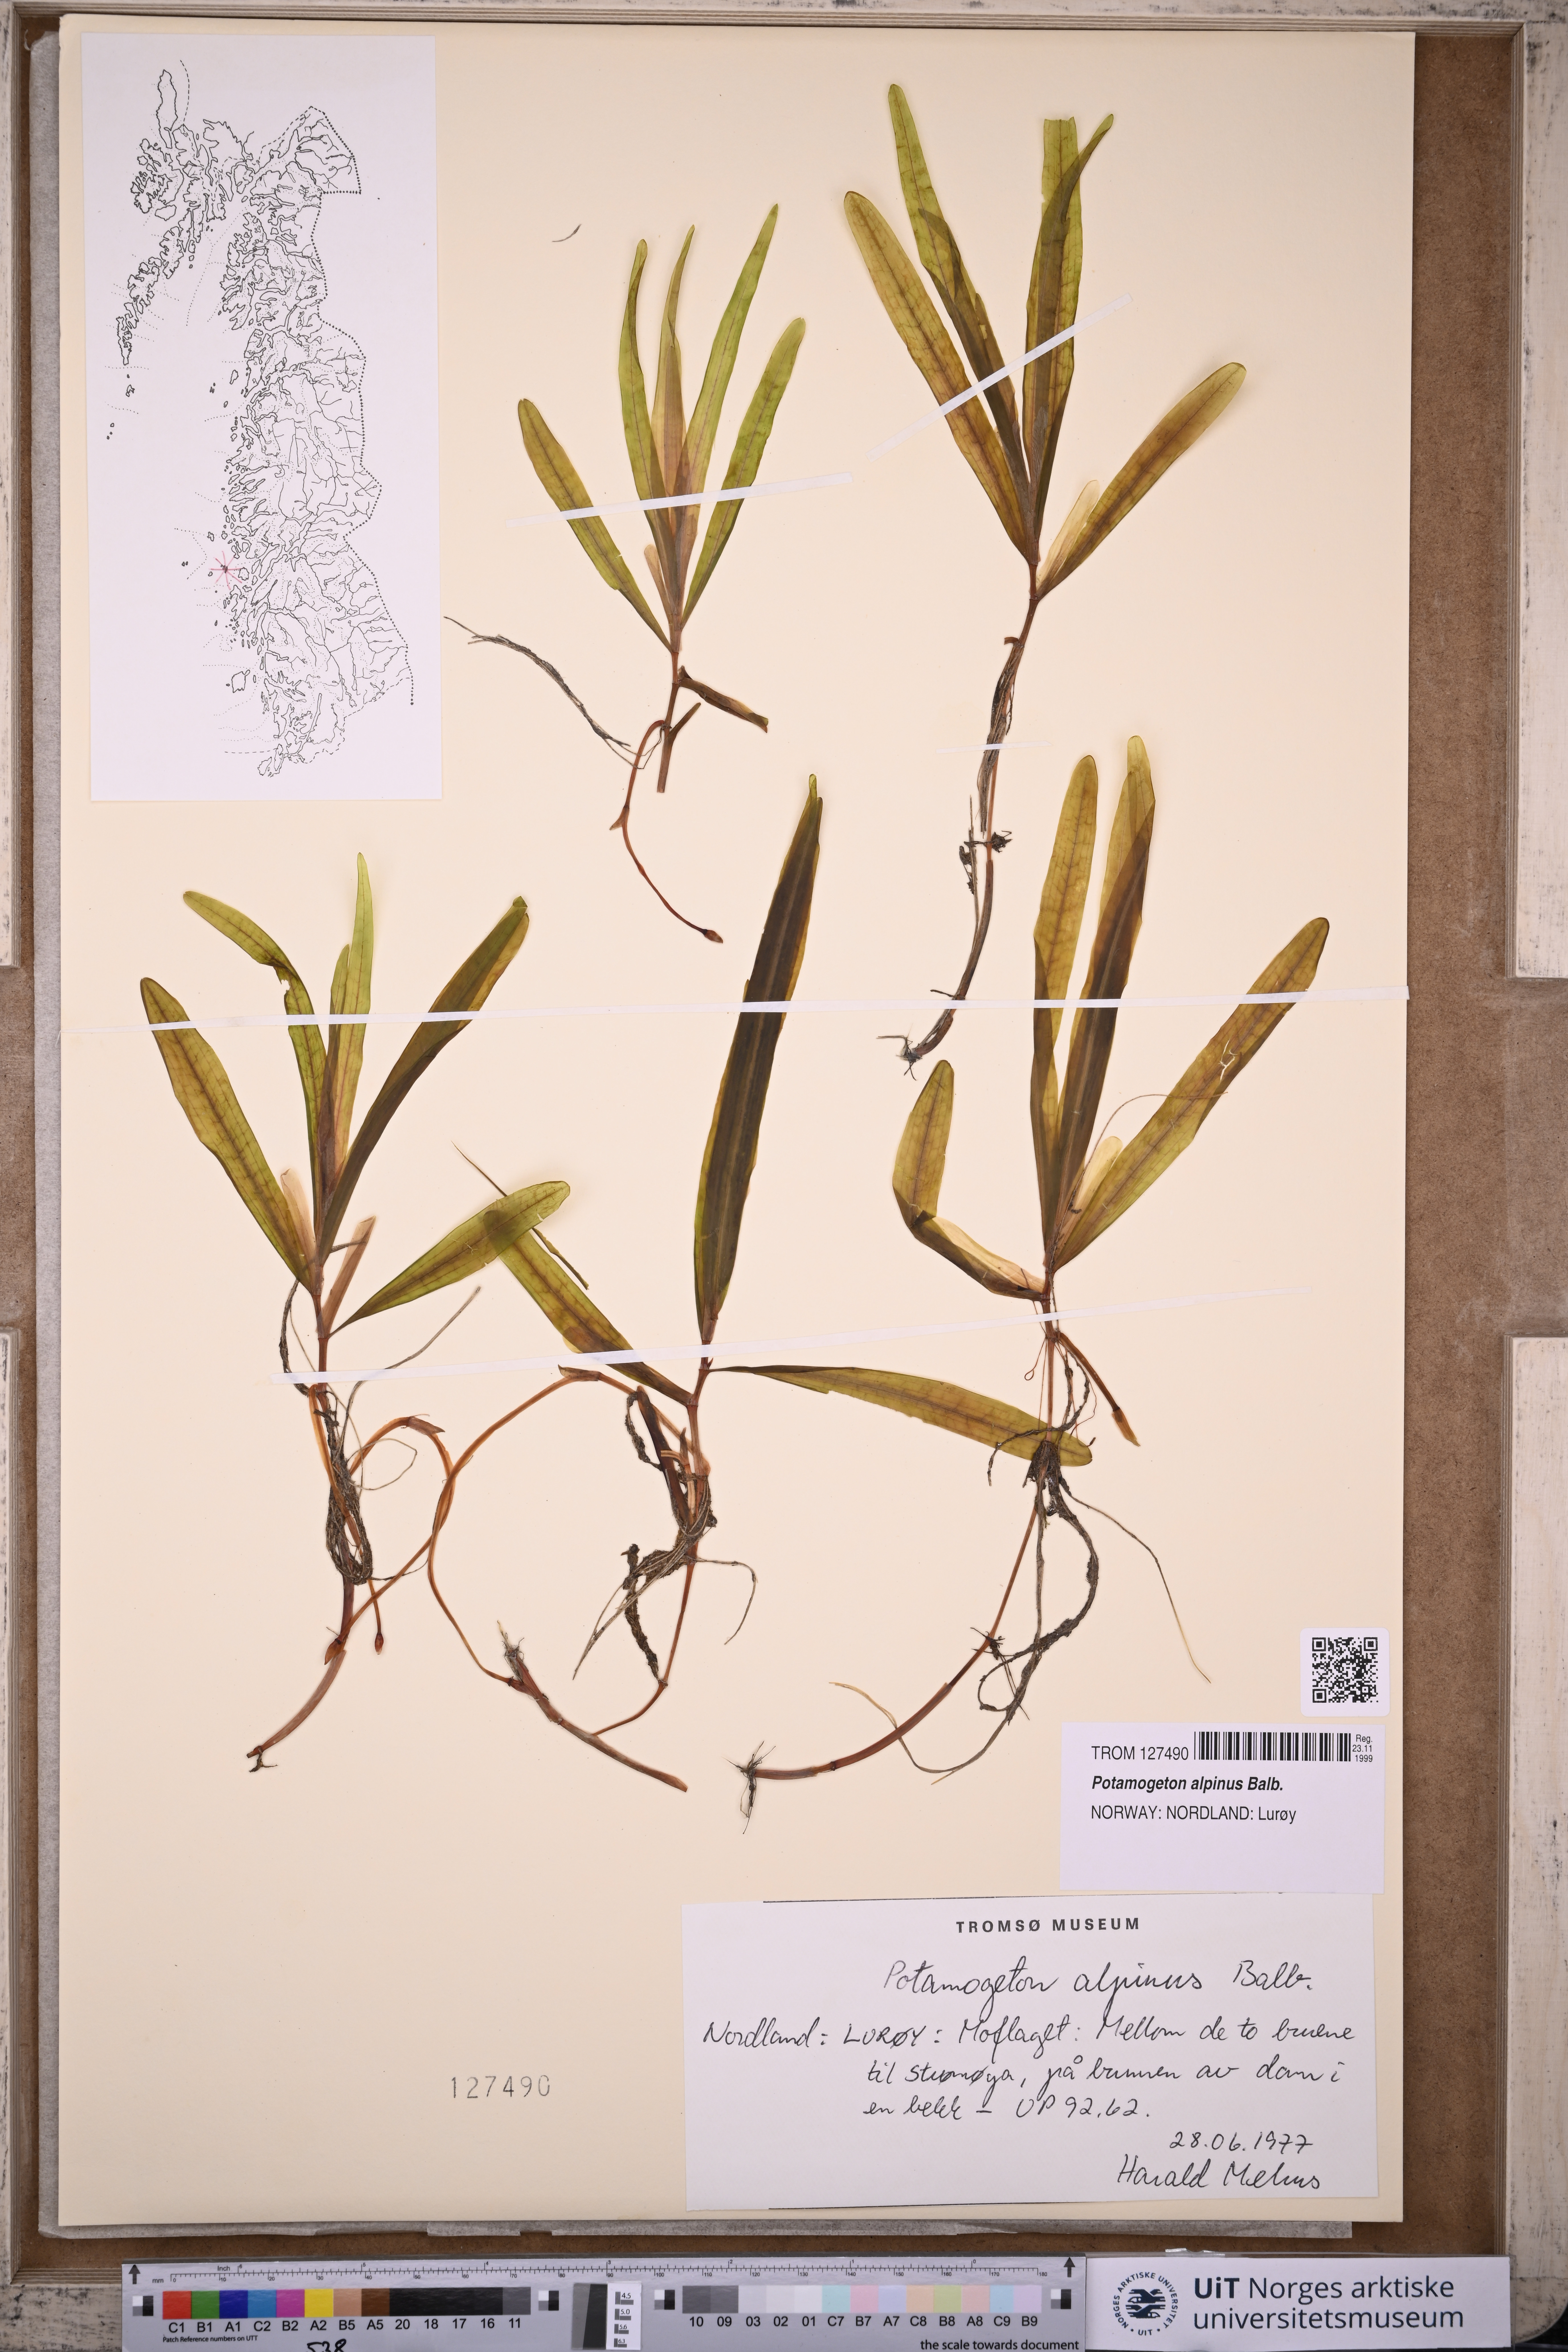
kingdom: Plantae
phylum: Tracheophyta
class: Liliopsida
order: Alismatales
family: Potamogetonaceae
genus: Potamogeton
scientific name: Potamogeton alpinus
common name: Red pondweed
